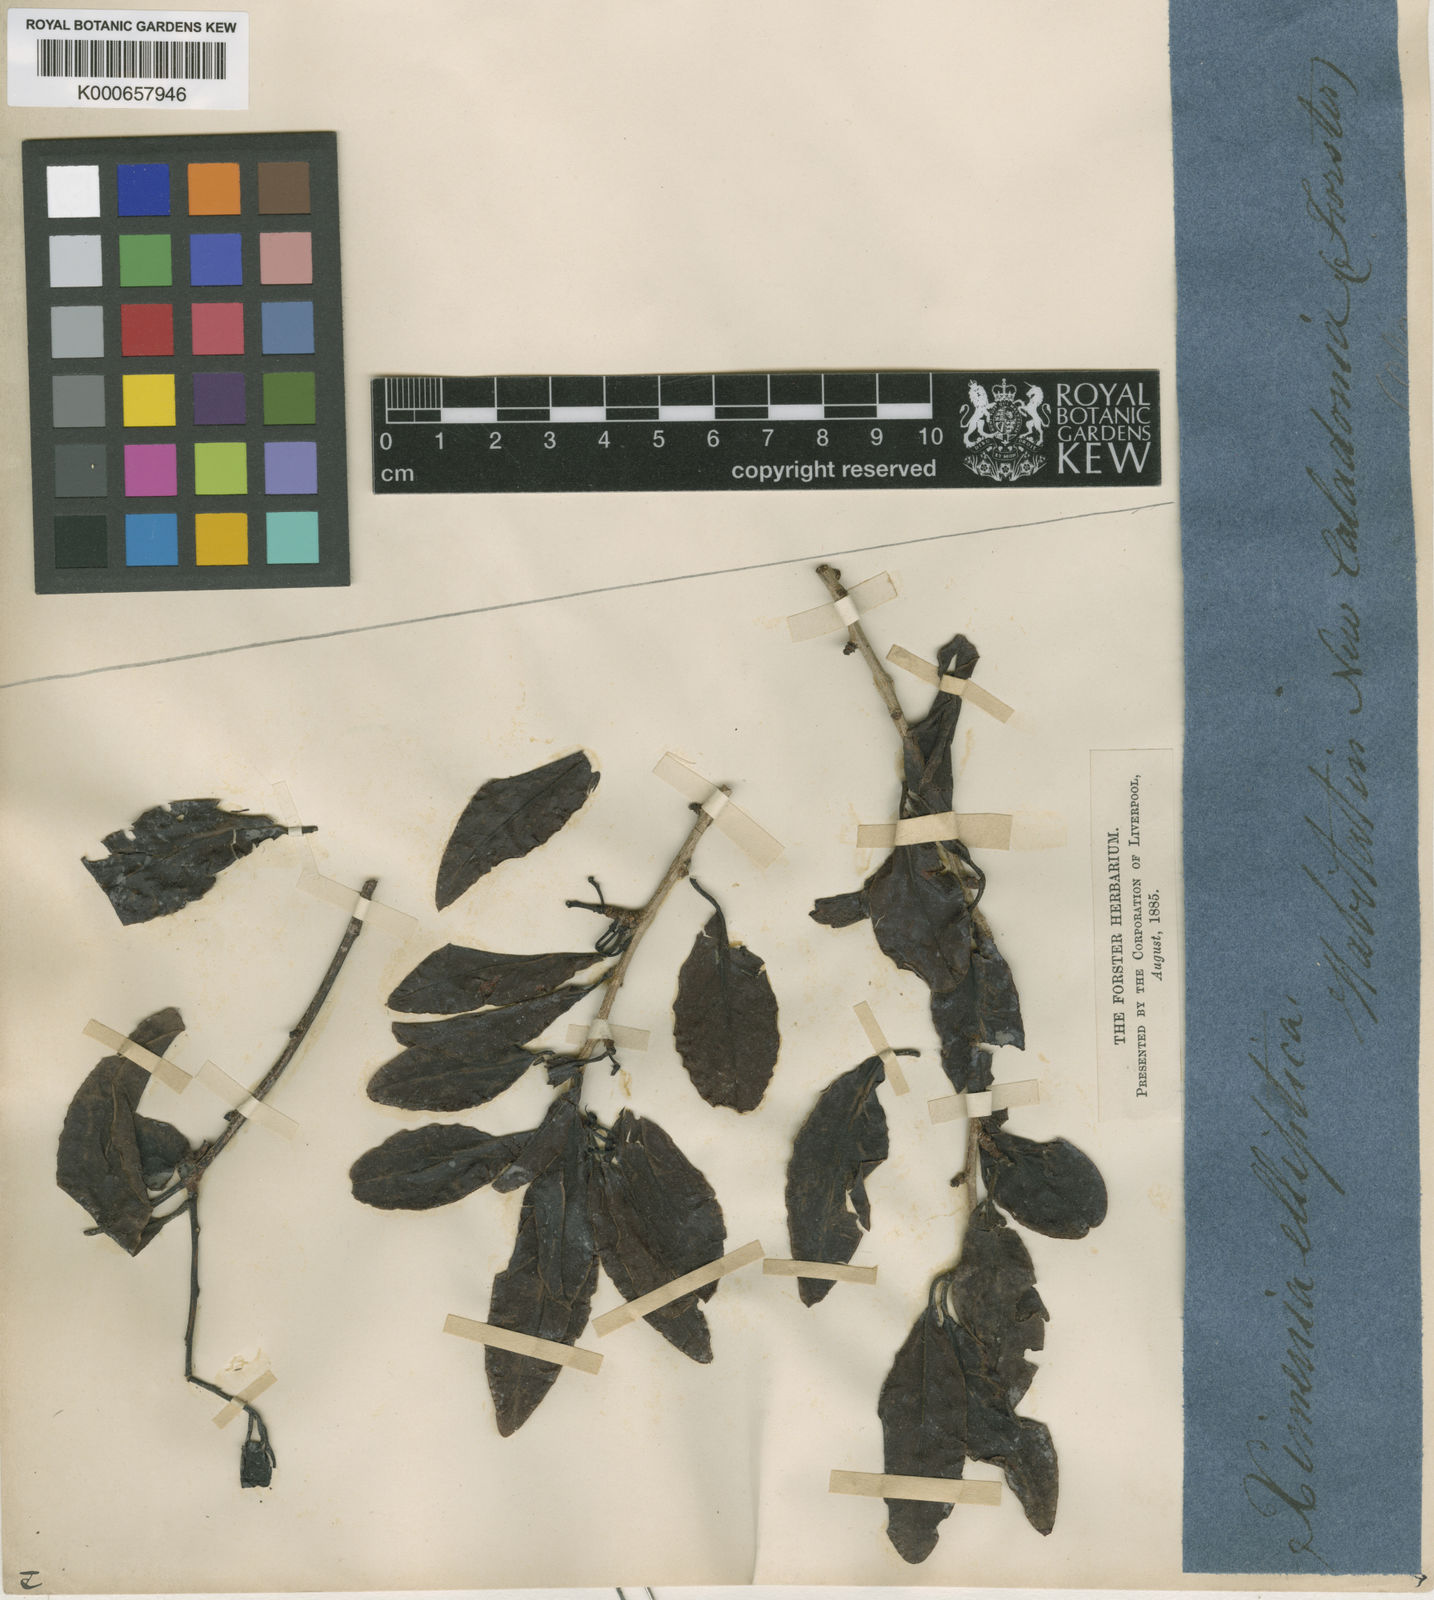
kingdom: Plantae
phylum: Tracheophyta
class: Magnoliopsida
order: Santalales
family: Ximeniaceae
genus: Ximenia
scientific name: Ximenia americana
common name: Tallowwood
